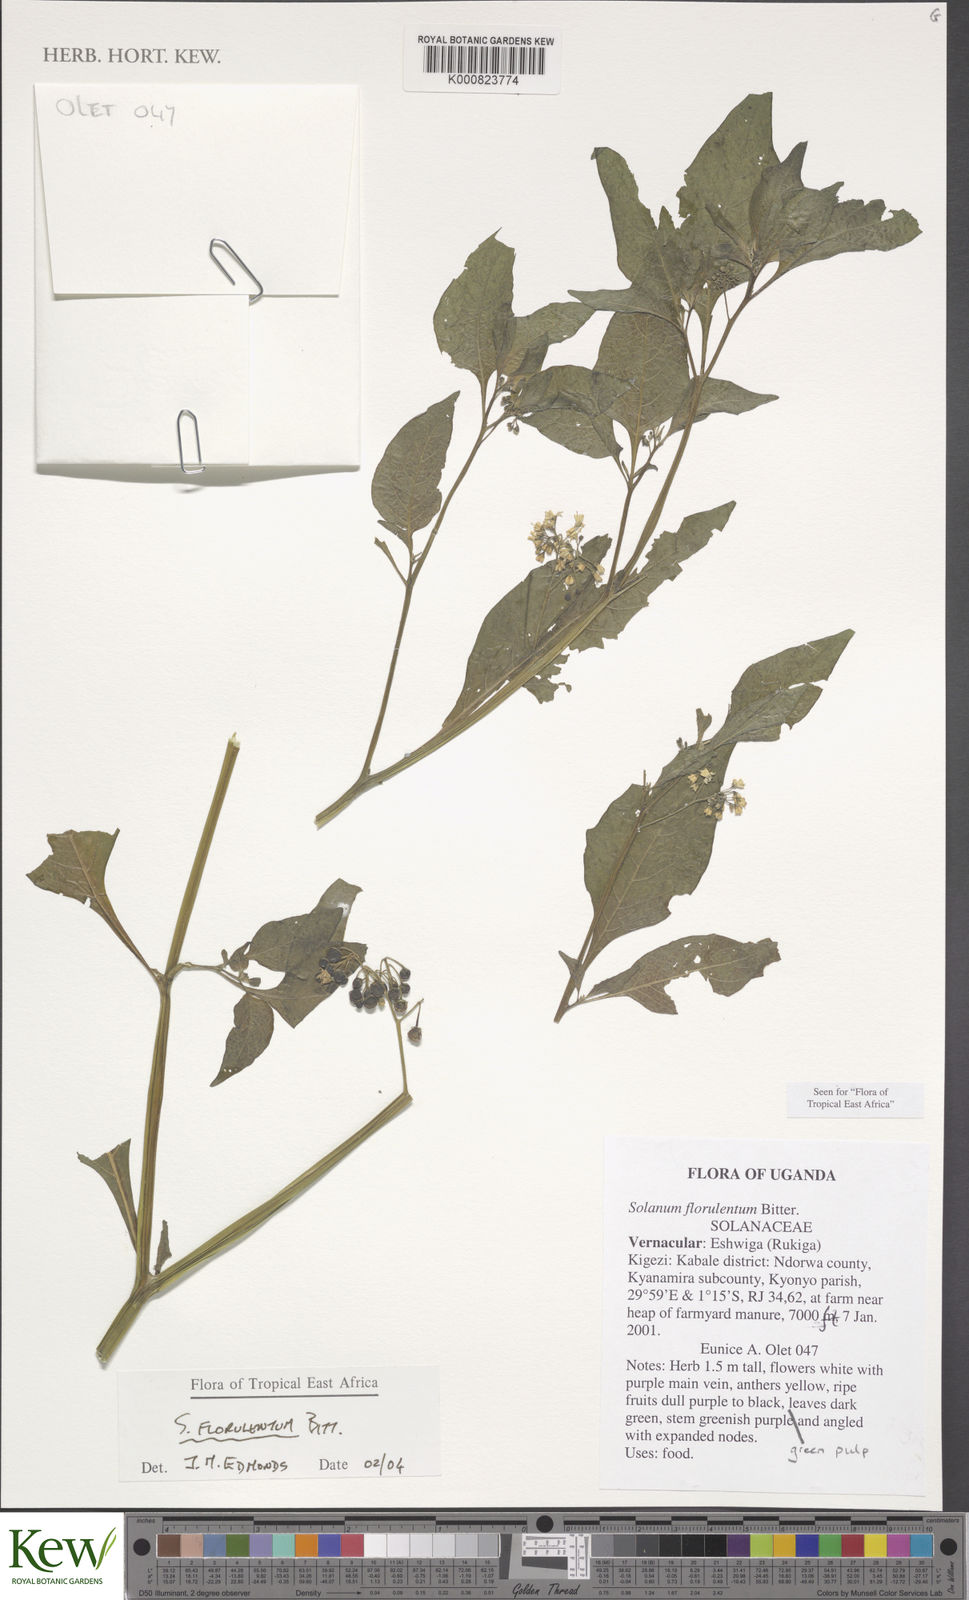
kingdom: Plantae
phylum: Tracheophyta
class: Magnoliopsida
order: Solanales
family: Solanaceae
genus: Solanum
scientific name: Solanum tarderemotum
